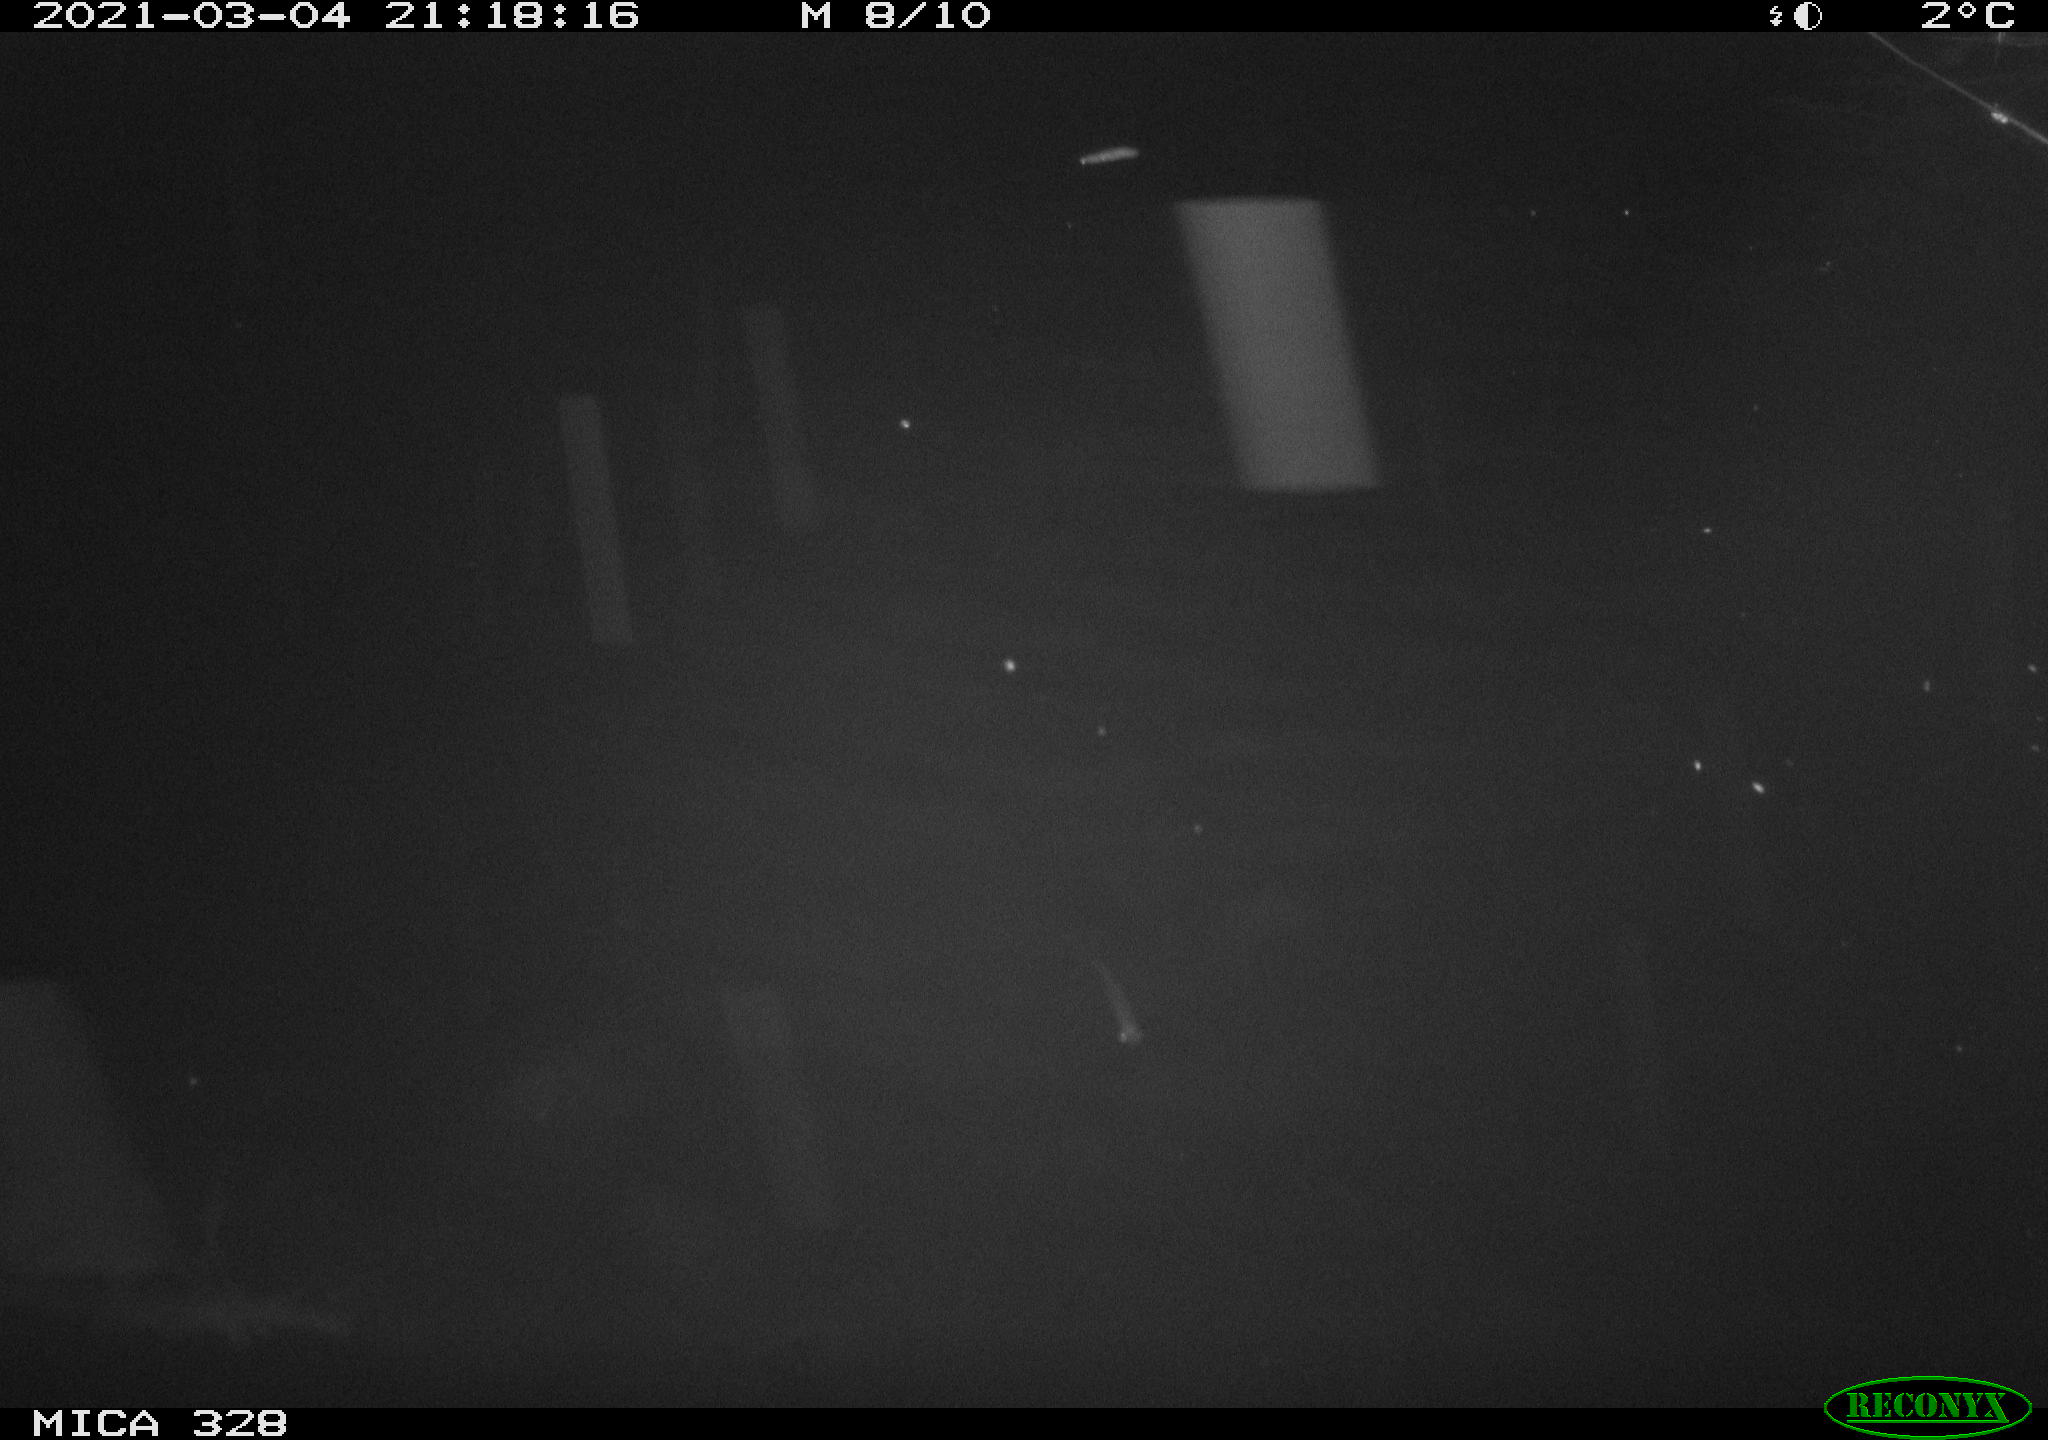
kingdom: Animalia
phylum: Chordata
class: Mammalia
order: Rodentia
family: Cricetidae
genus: Ondatra
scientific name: Ondatra zibethicus
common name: Muskrat
